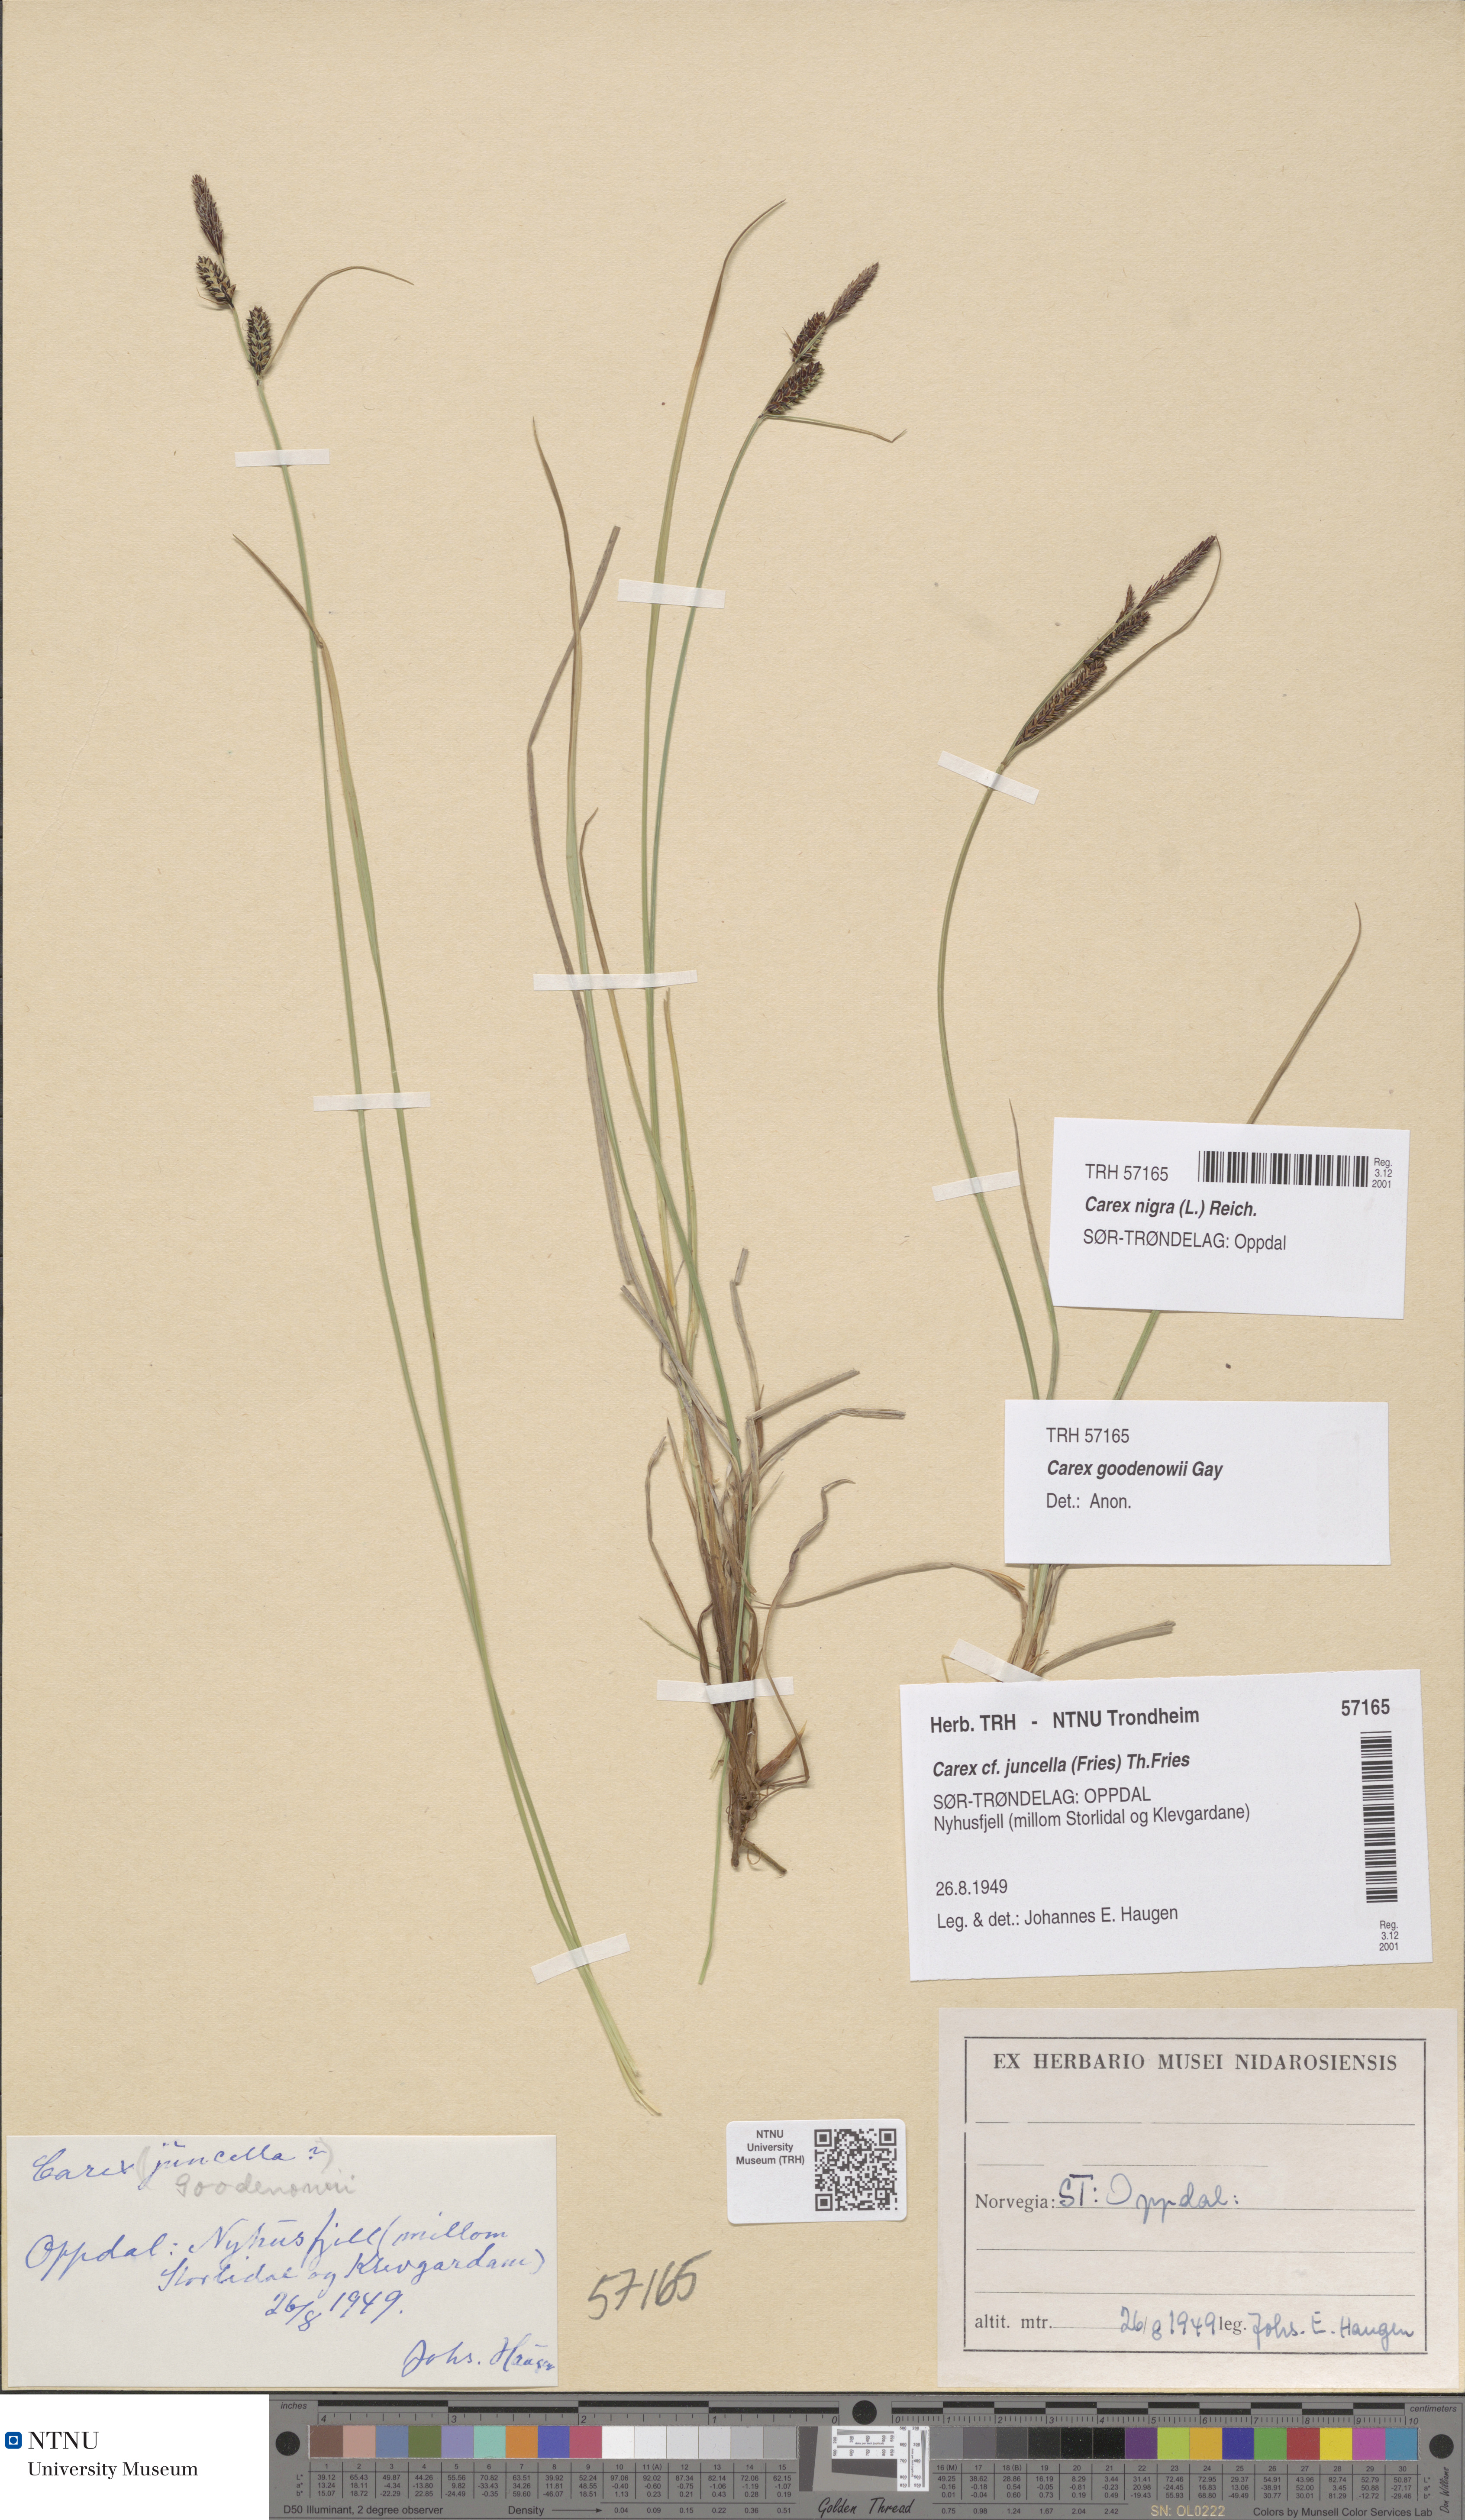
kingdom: Plantae
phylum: Tracheophyta
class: Liliopsida
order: Poales
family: Cyperaceae
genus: Carex
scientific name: Carex nigra
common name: Common sedge
